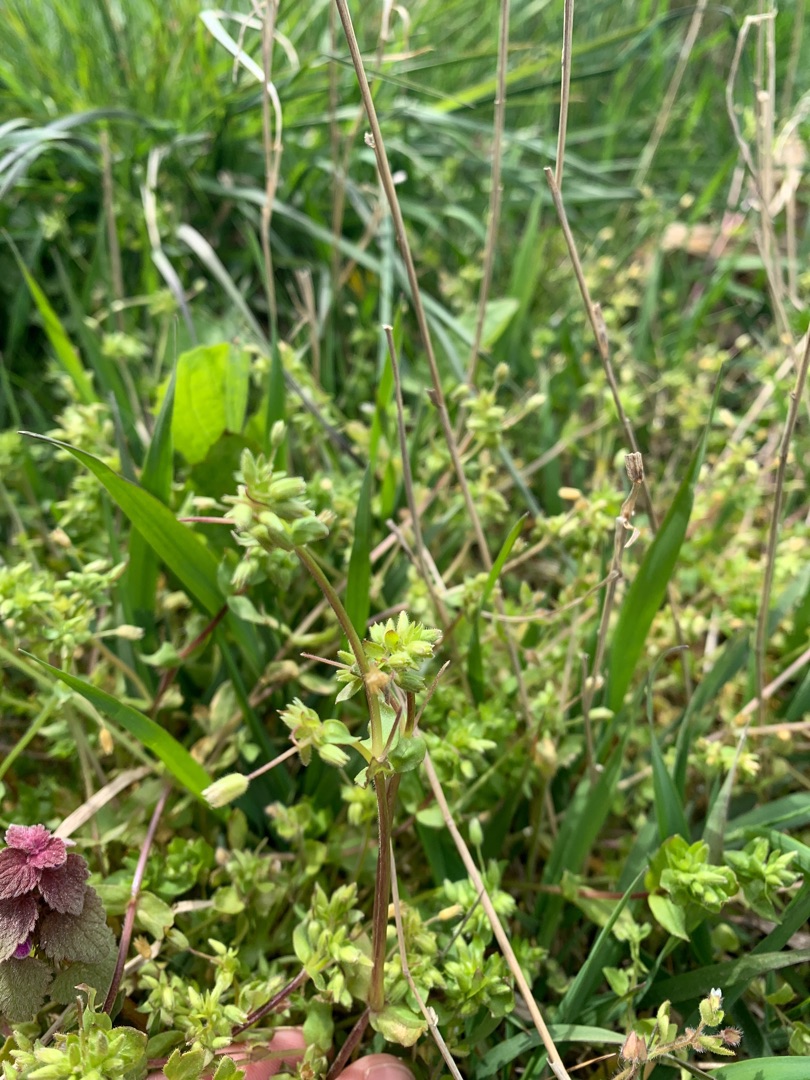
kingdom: Plantae
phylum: Tracheophyta
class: Magnoliopsida
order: Caryophyllales
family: Caryophyllaceae
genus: Stellaria
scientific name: Stellaria apetala
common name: Bleg fuglegræs
